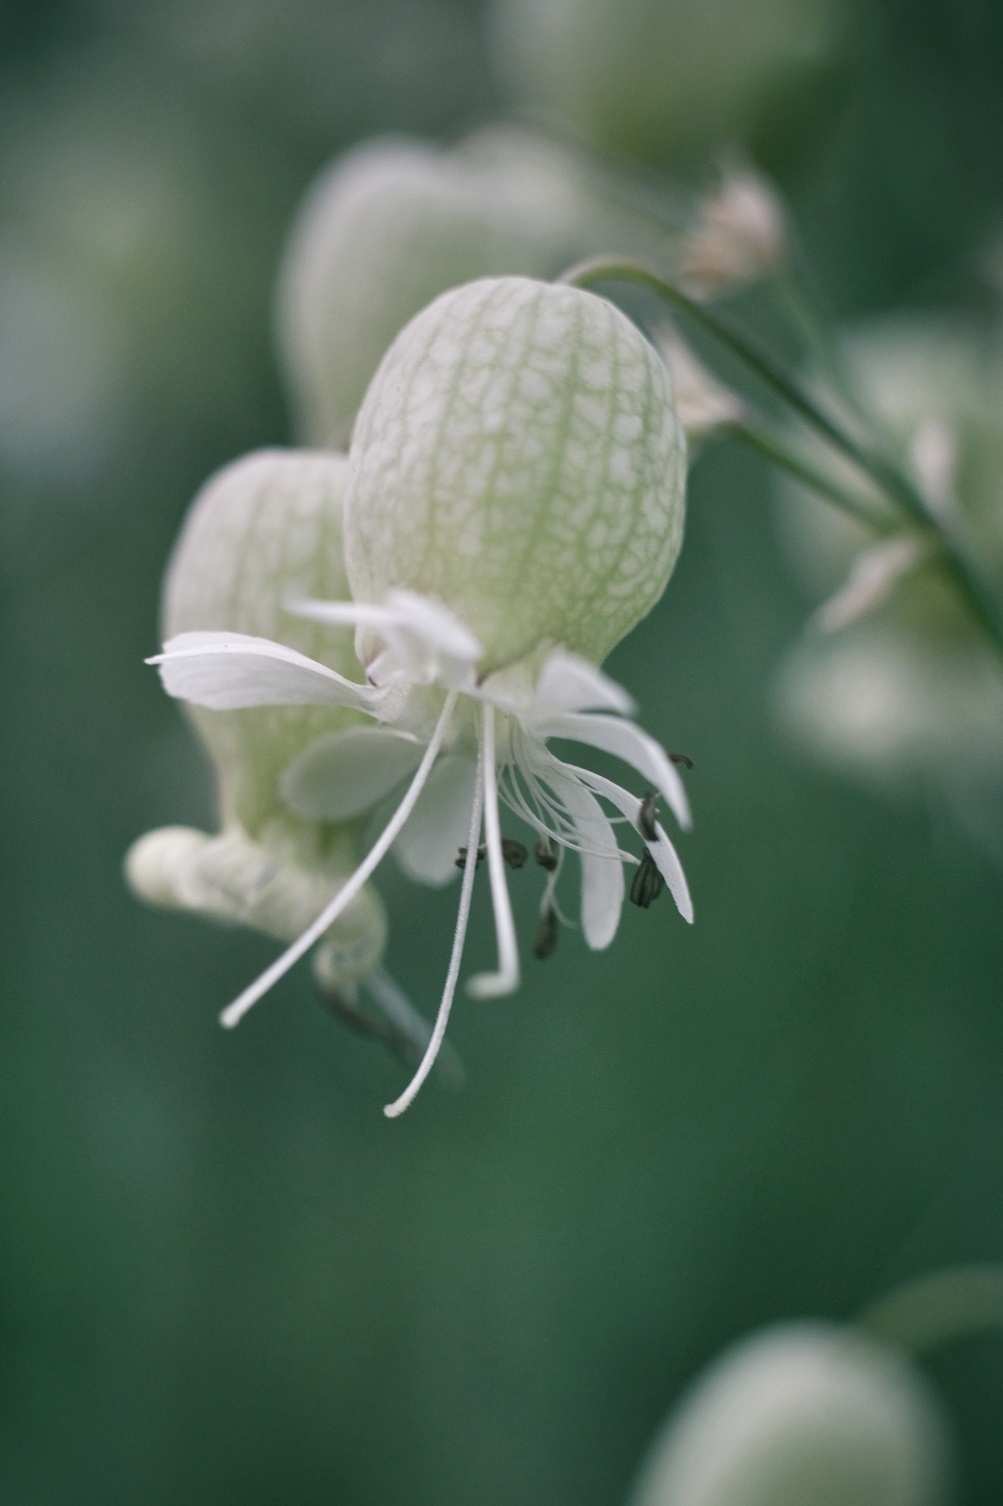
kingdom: Plantae
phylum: Tracheophyta
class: Magnoliopsida
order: Caryophyllales
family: Caryophyllaceae
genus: Silene
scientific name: Silene vulgaris
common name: Blæresmælde
